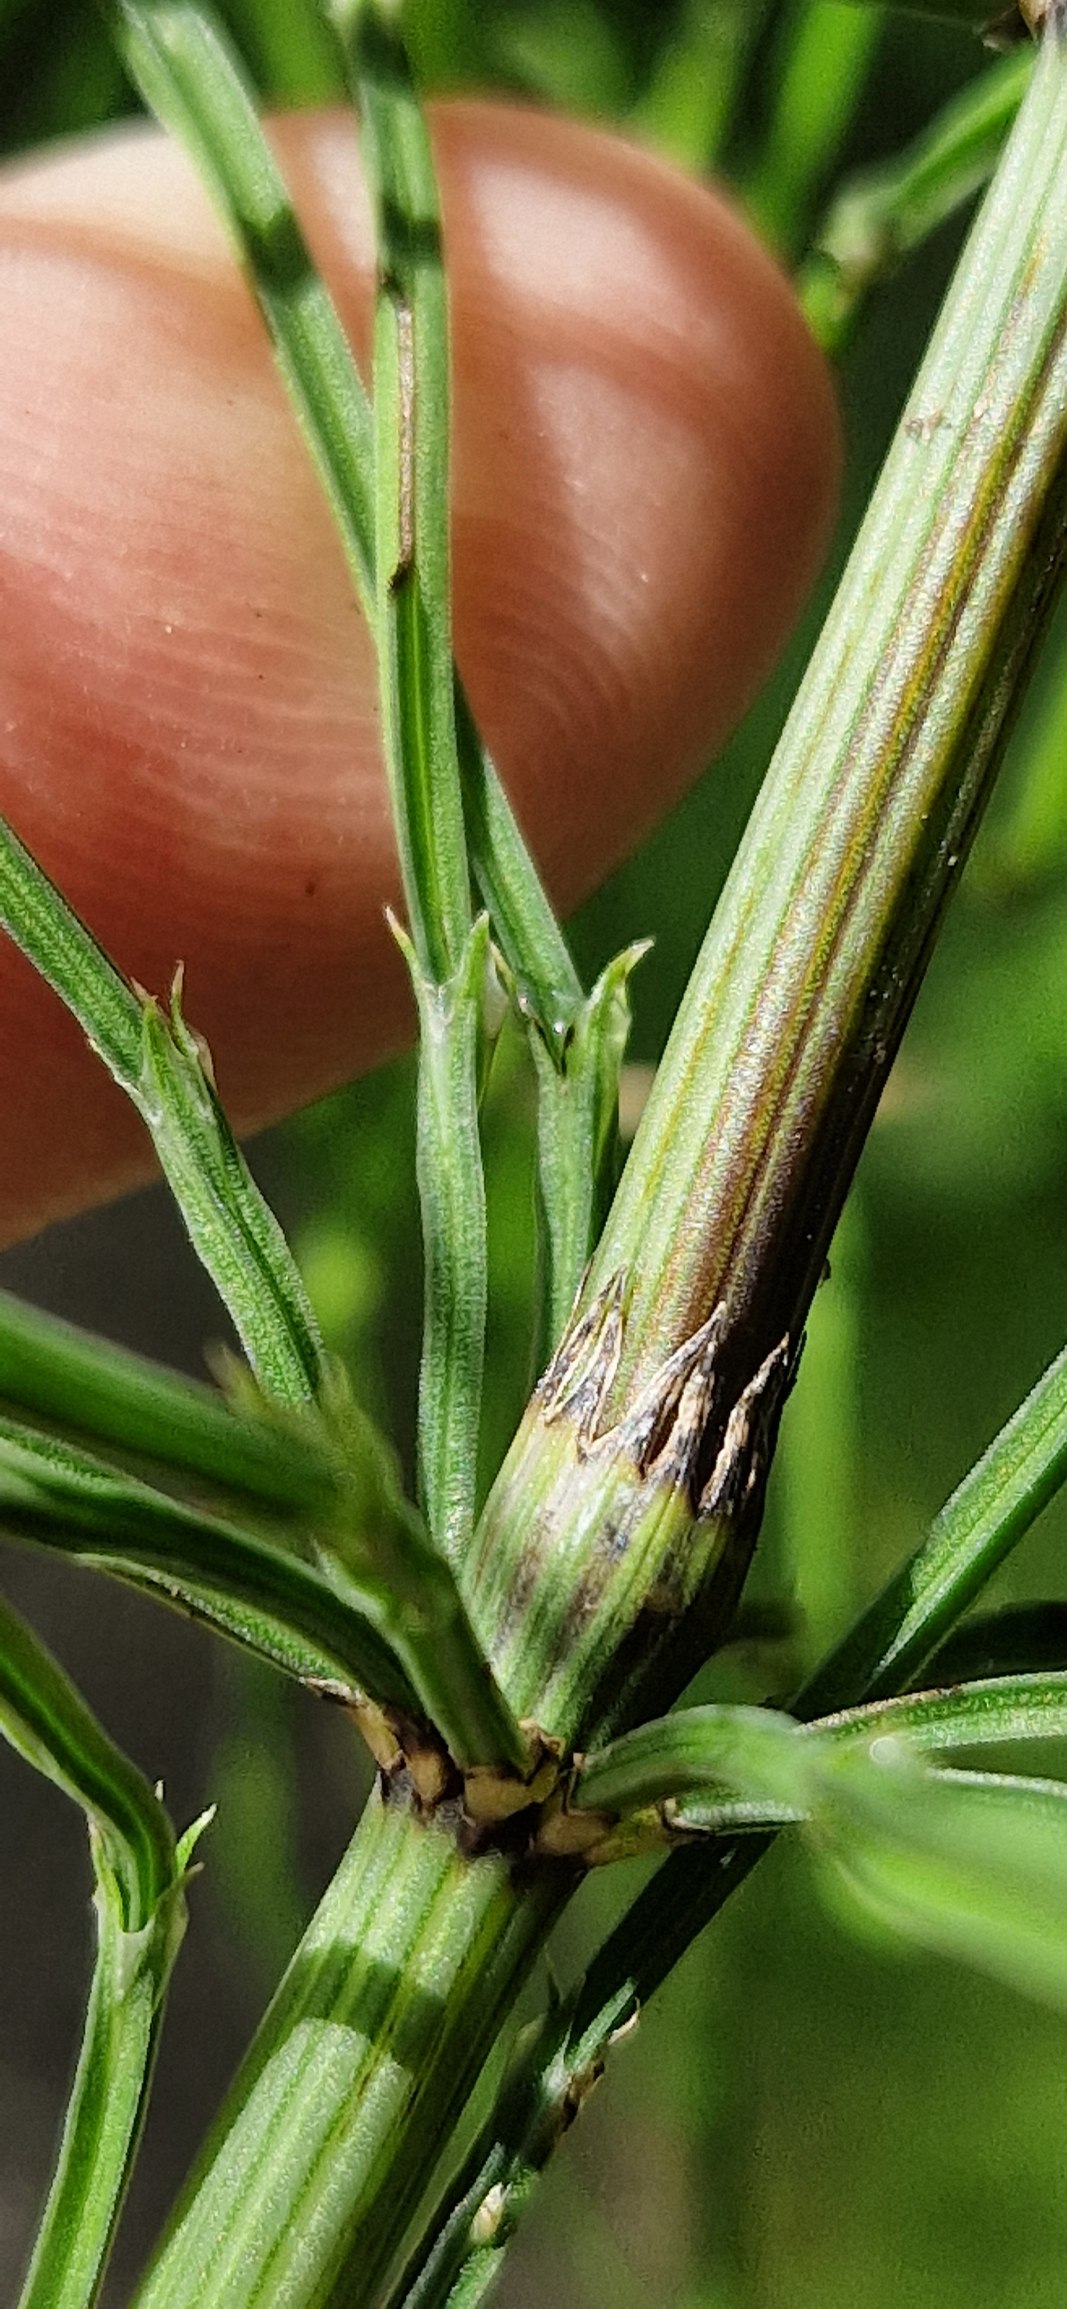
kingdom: Plantae
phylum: Tracheophyta
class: Polypodiopsida
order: Equisetales
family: Equisetaceae
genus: Equisetum
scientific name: Equisetum arvense
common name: Ager-padderok
